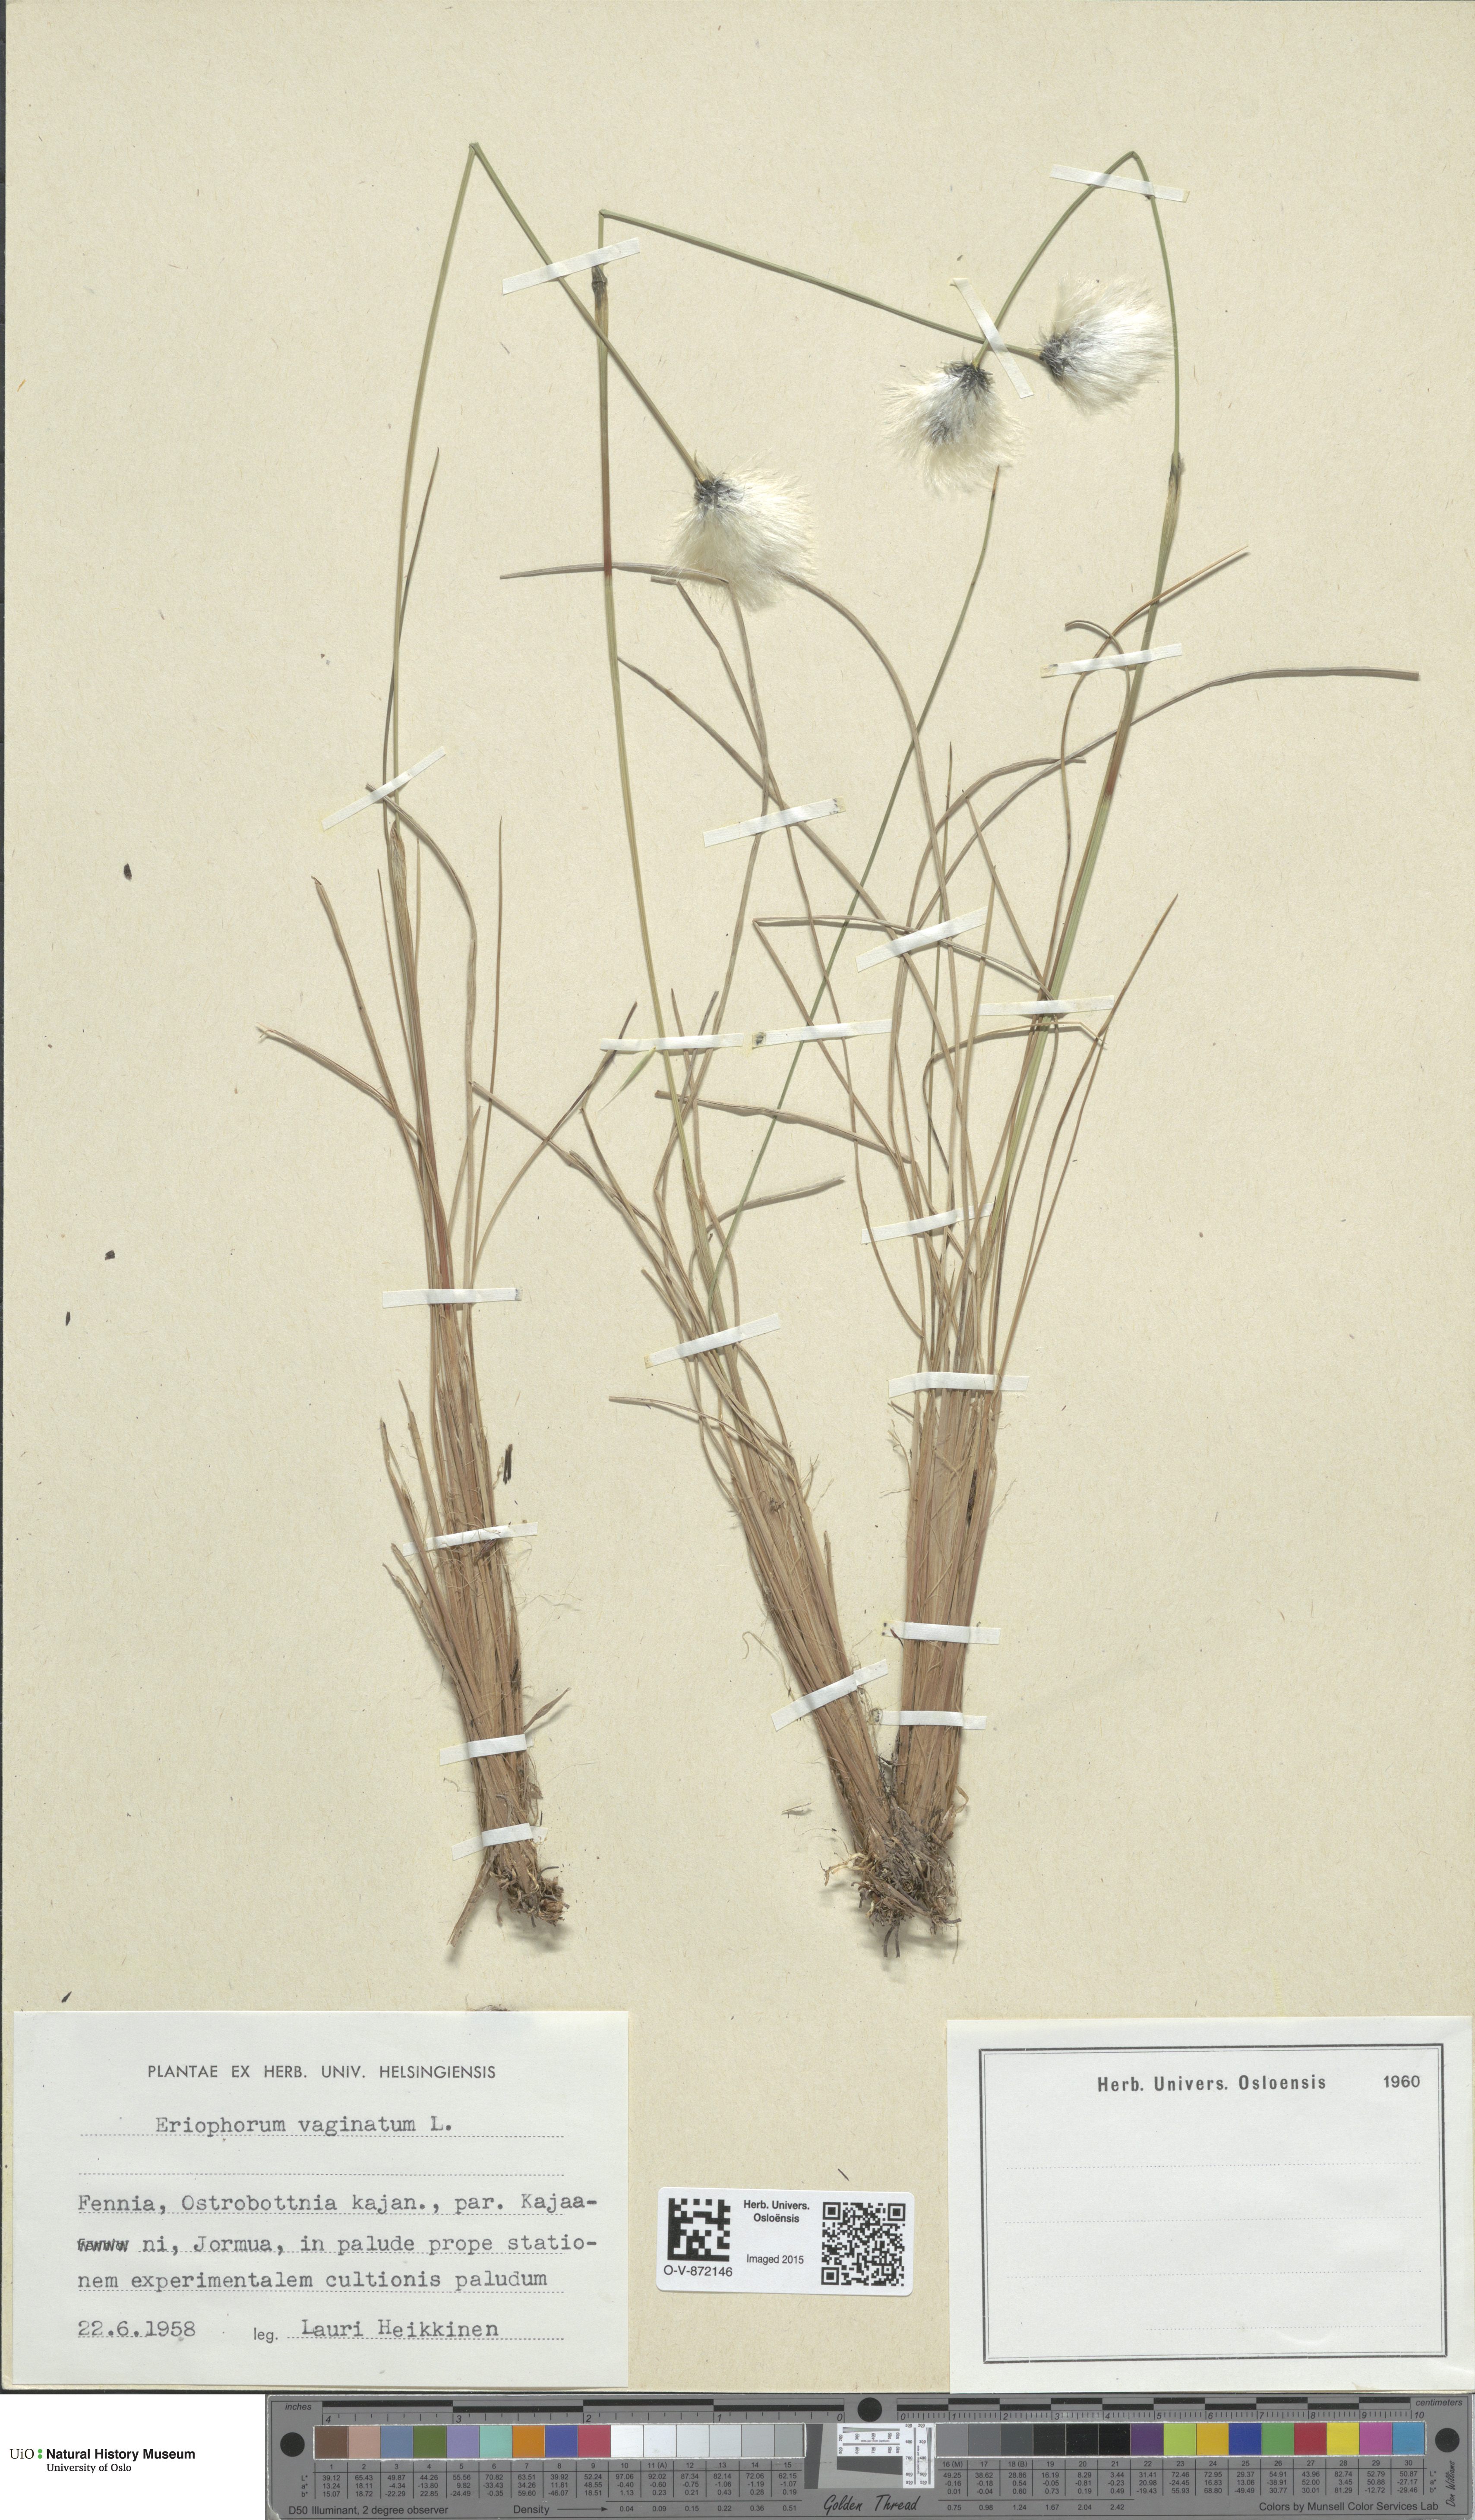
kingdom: Plantae
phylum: Tracheophyta
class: Liliopsida
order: Poales
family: Cyperaceae
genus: Eriophorum
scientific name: Eriophorum vaginatum
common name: Hare's-tail cottongrass
